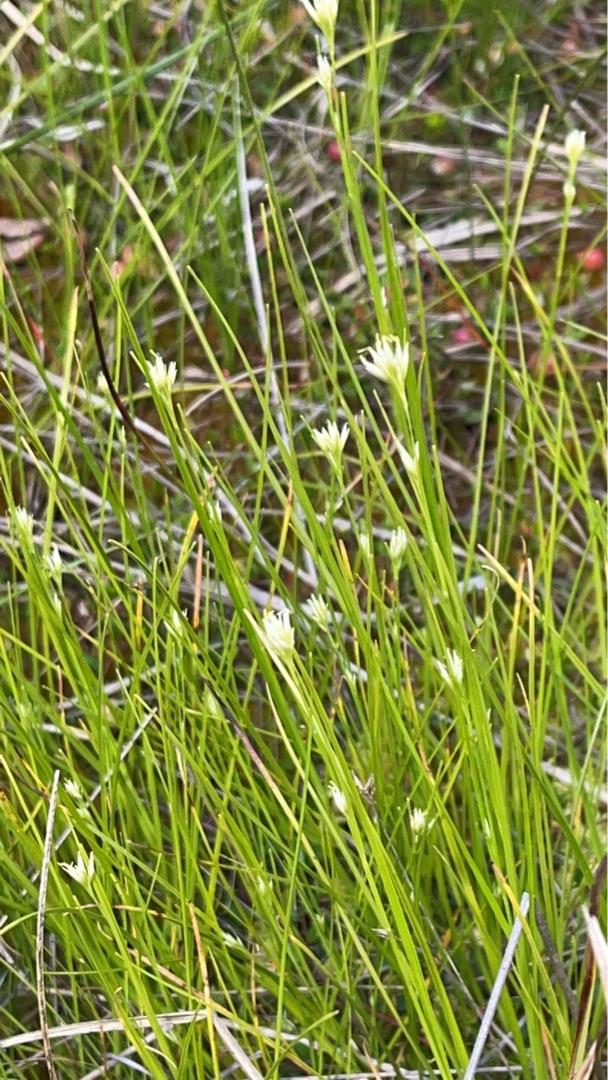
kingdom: Plantae
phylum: Tracheophyta
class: Liliopsida
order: Poales
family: Cyperaceae
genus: Rhynchospora
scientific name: Rhynchospora alba
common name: Hvid næbfrø
